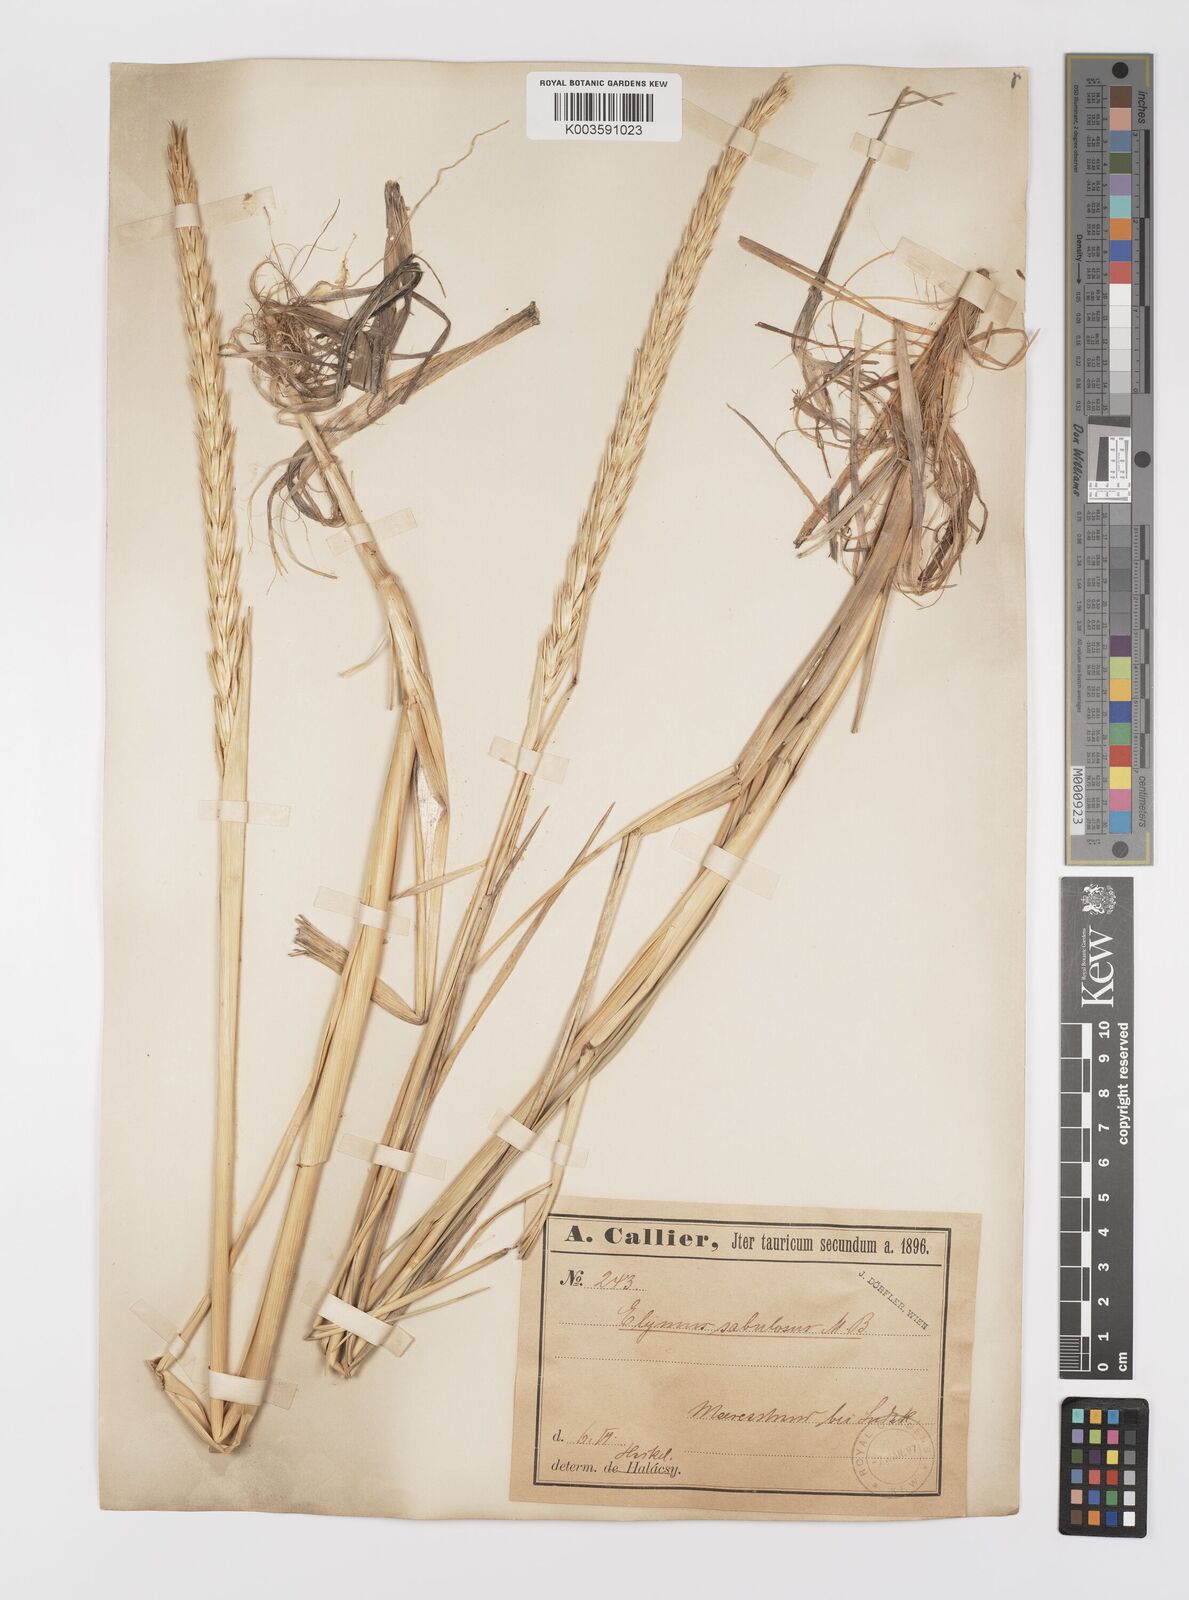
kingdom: Plantae
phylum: Tracheophyta
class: Liliopsida
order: Poales
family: Poaceae
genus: Leymus
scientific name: Leymus racemosus
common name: Mammoth wildrye
